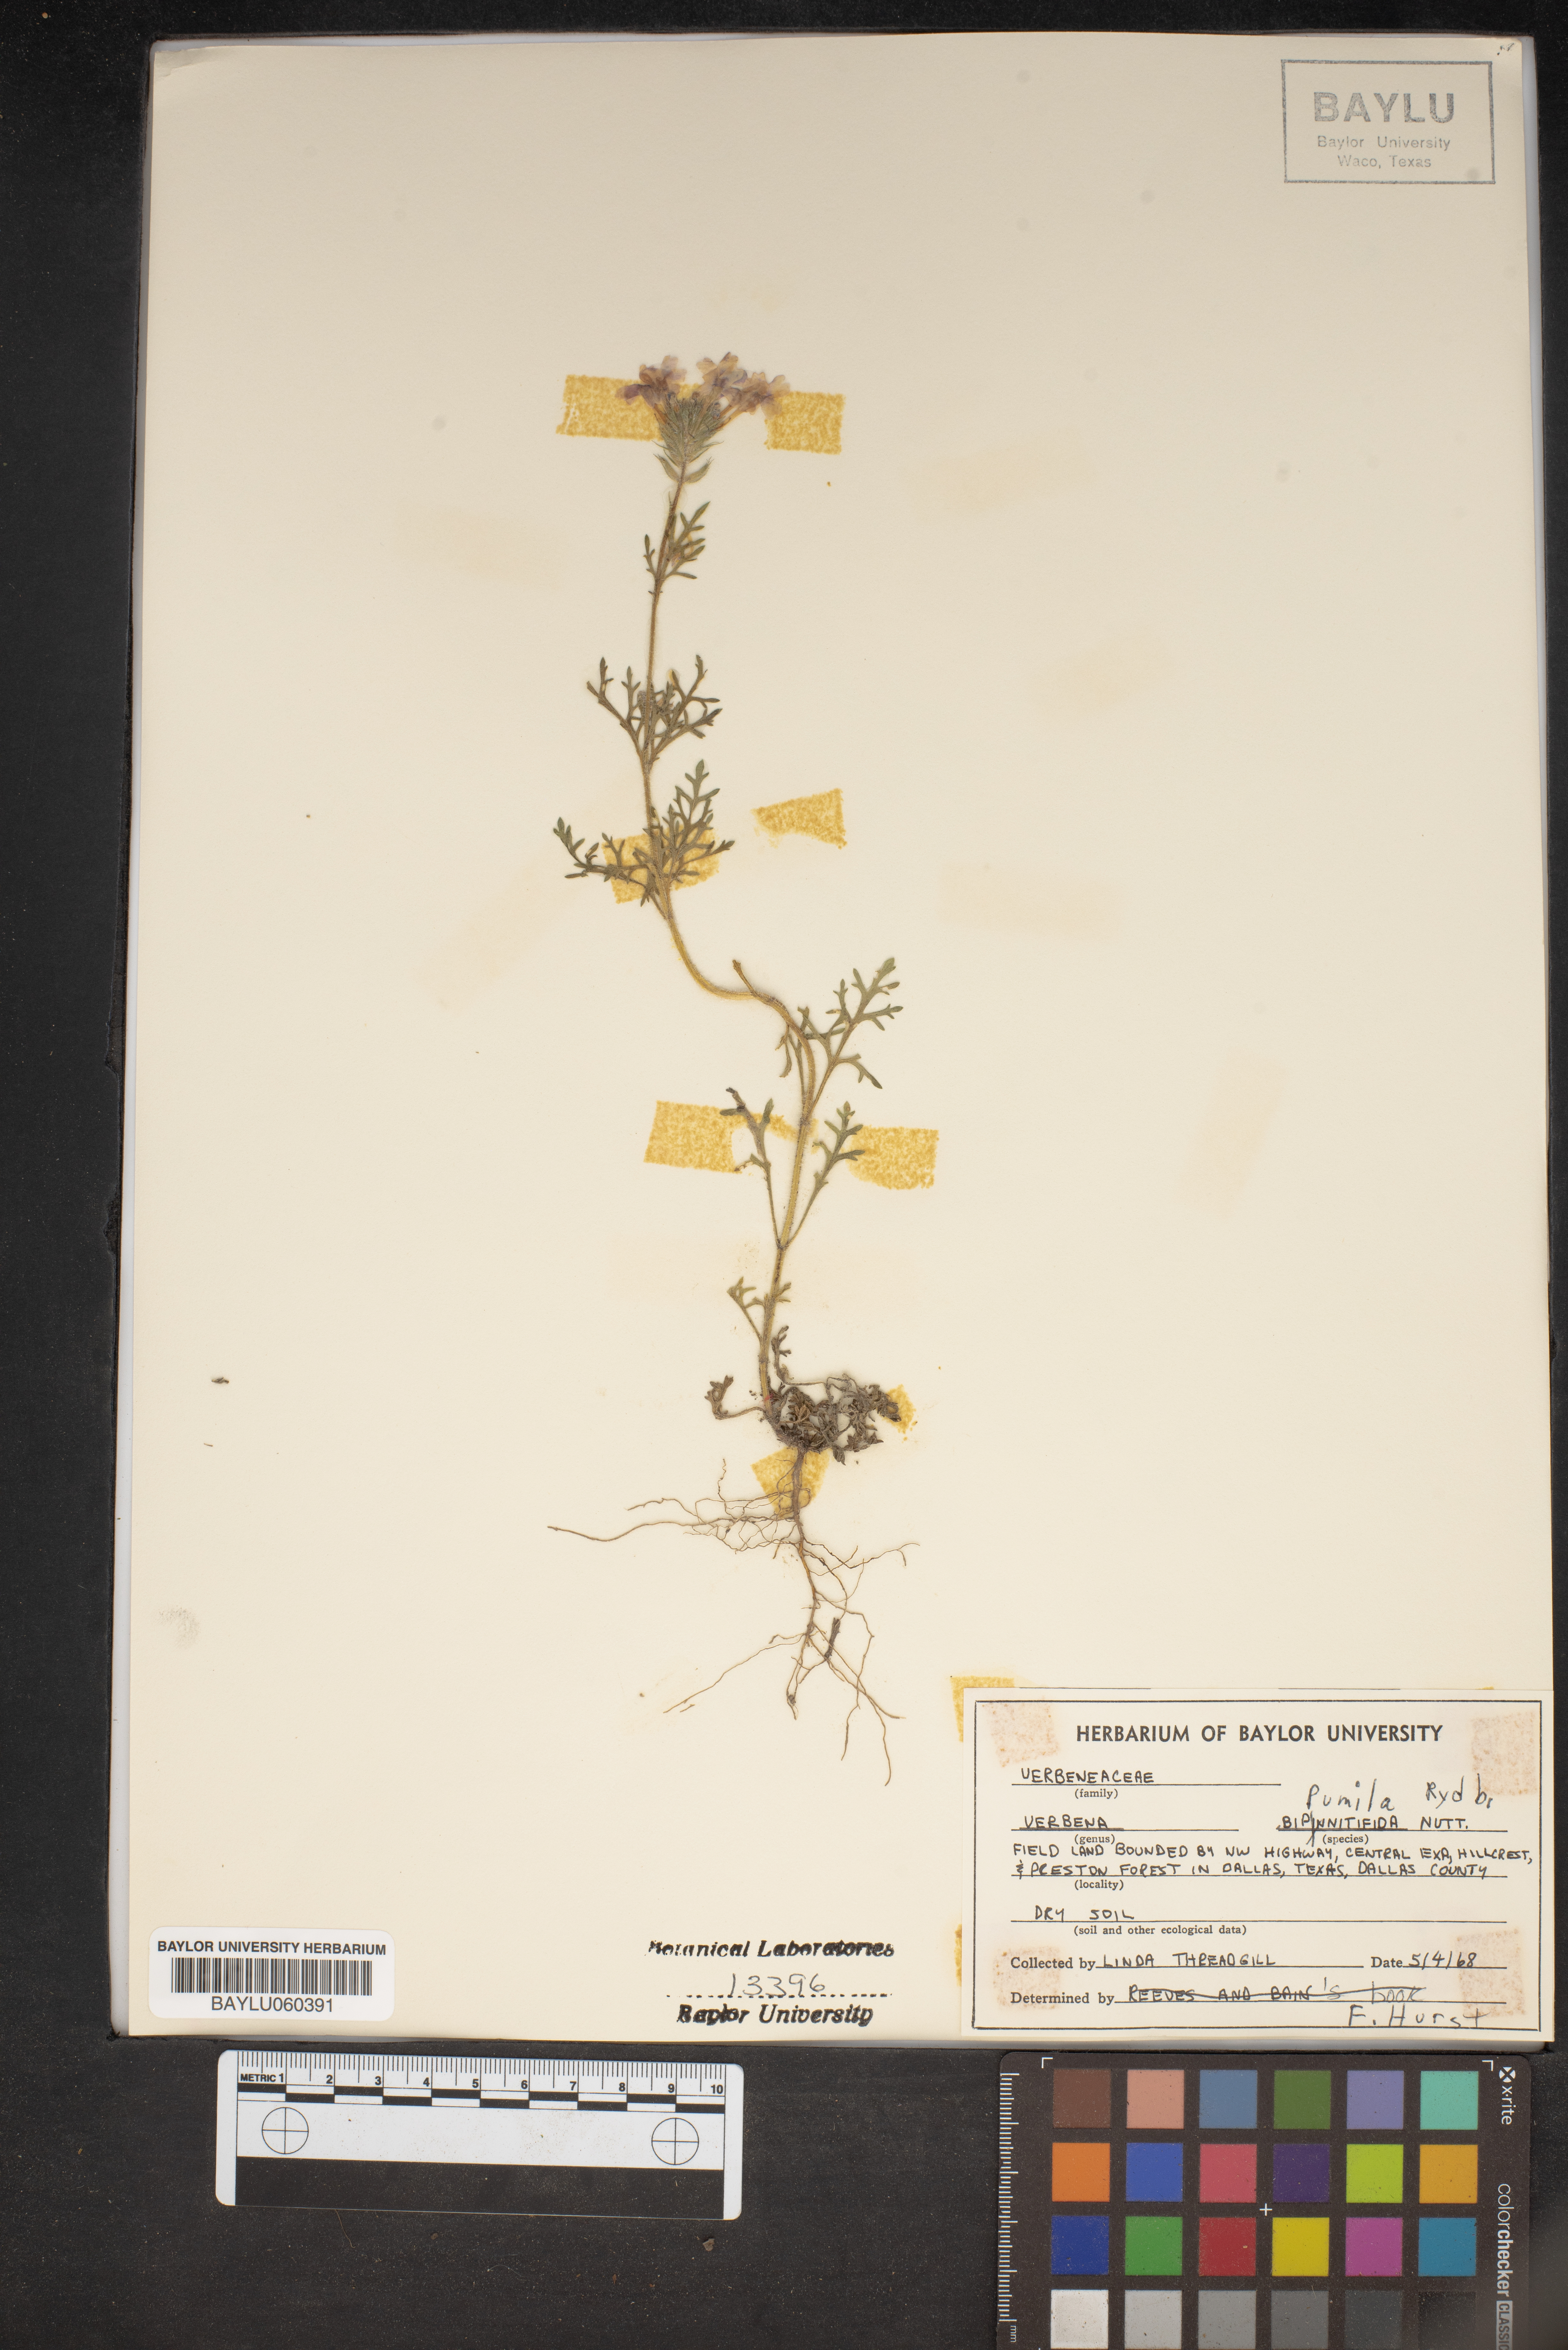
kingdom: Plantae
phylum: Tracheophyta
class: Magnoliopsida
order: Lamiales
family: Verbenaceae
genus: Verbena
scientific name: Verbena pumila
